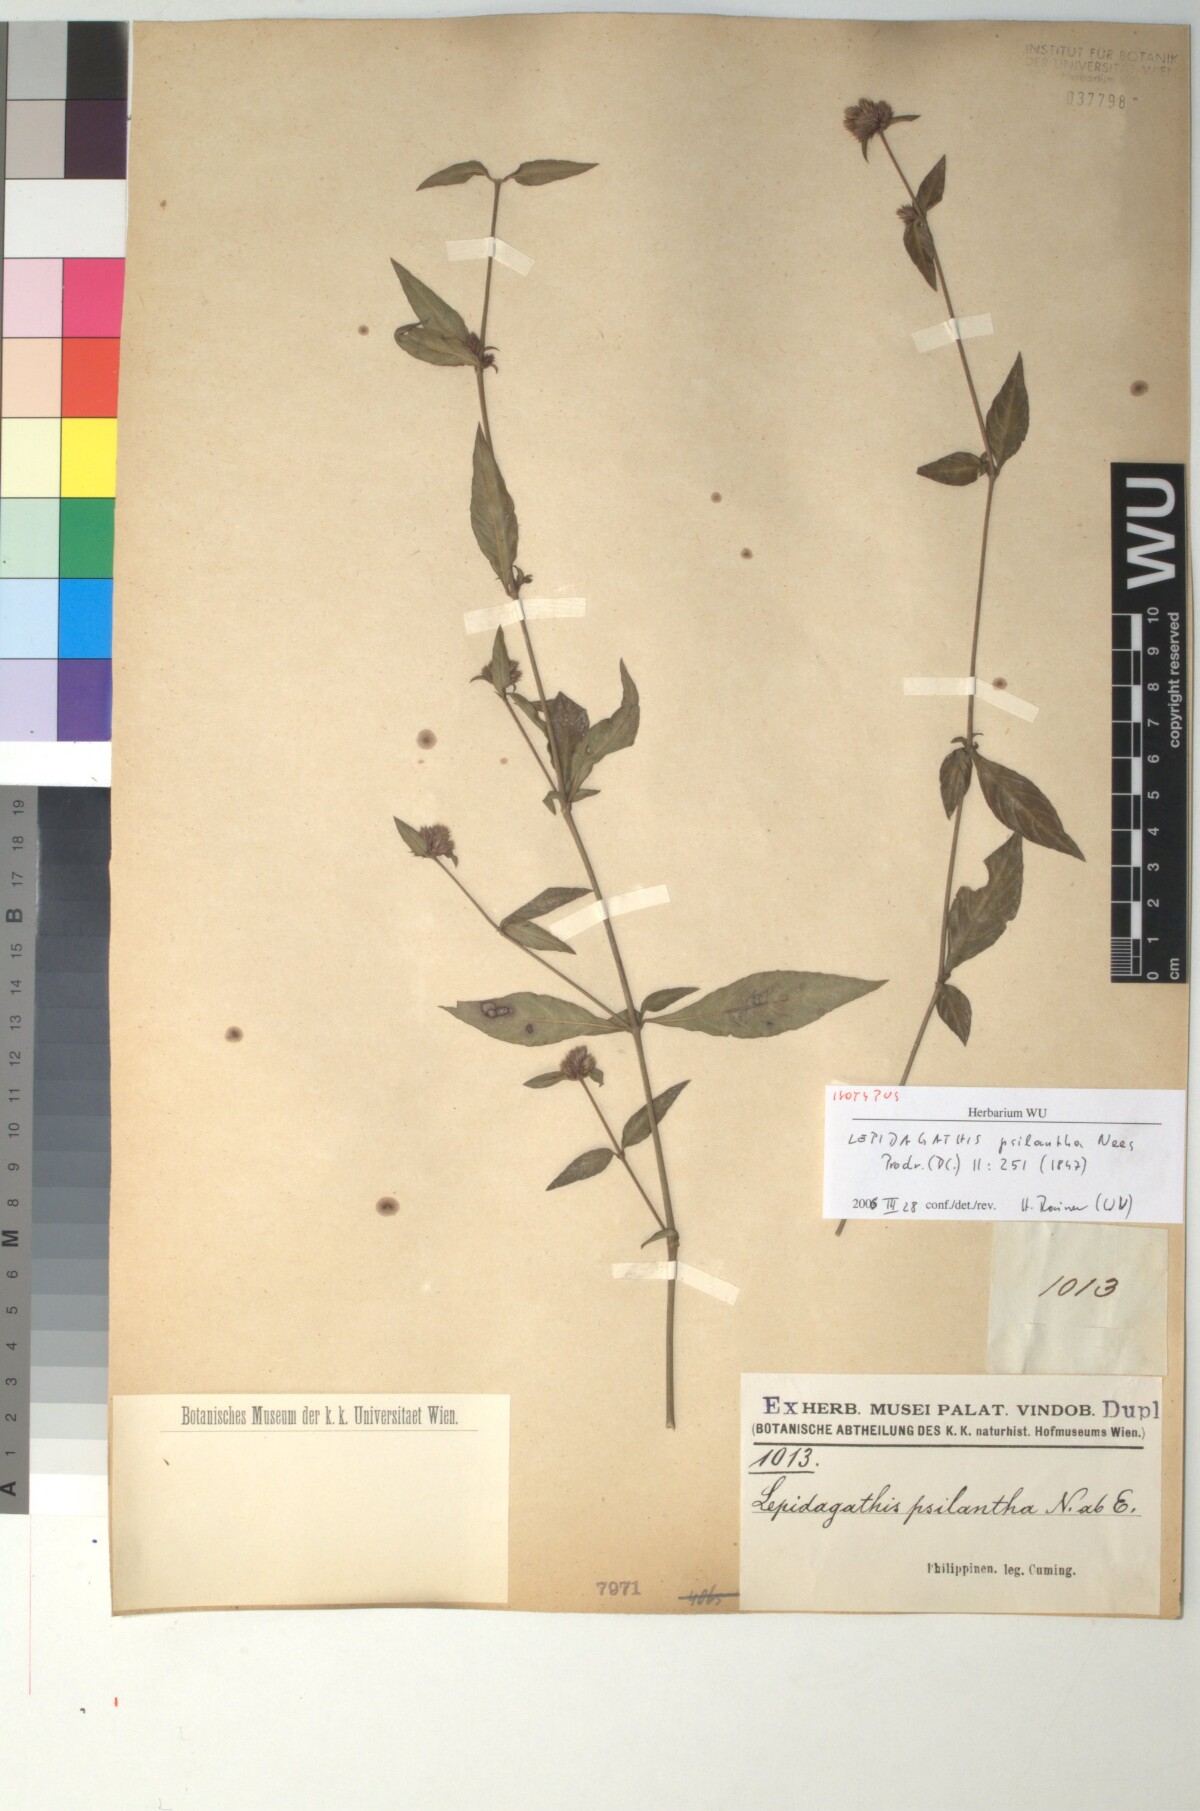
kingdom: Plantae
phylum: Tracheophyta
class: Magnoliopsida
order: Lamiales
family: Acanthaceae
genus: Lepidagathis
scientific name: Lepidagathis psilantha
